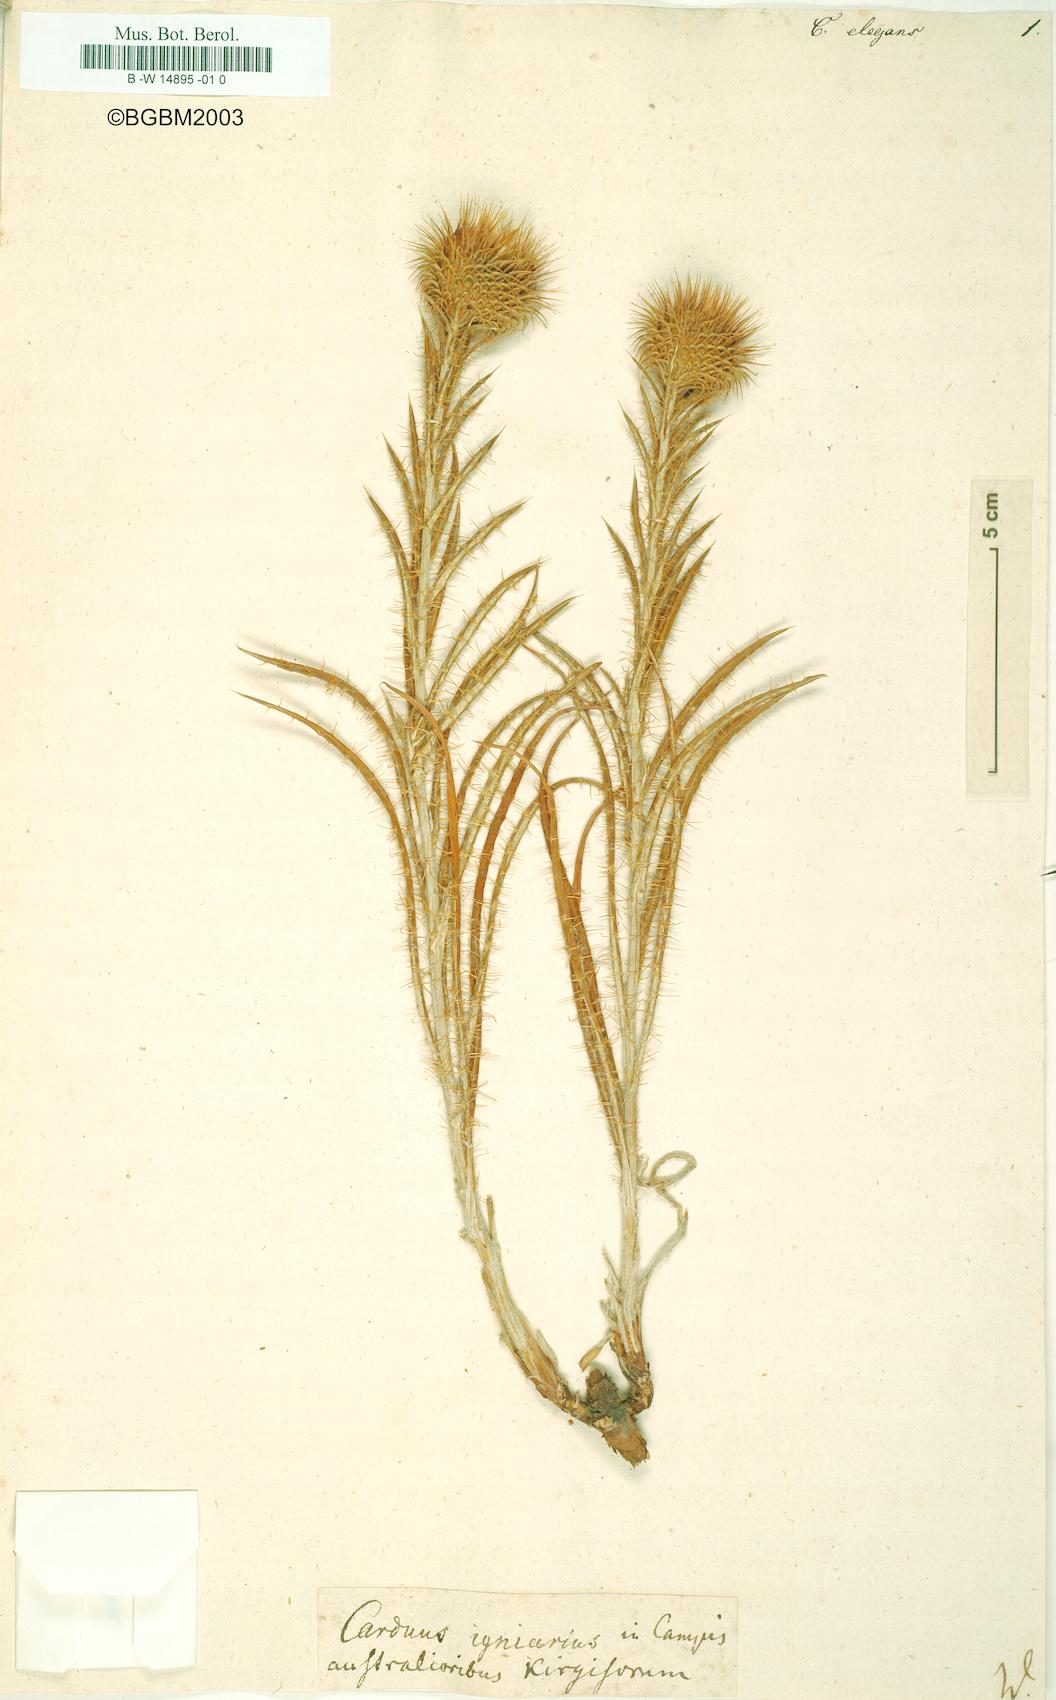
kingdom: Plantae
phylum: Tracheophyta
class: Magnoliopsida
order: Asterales
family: Asteraceae
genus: Carduus
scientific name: Carduus elegans
